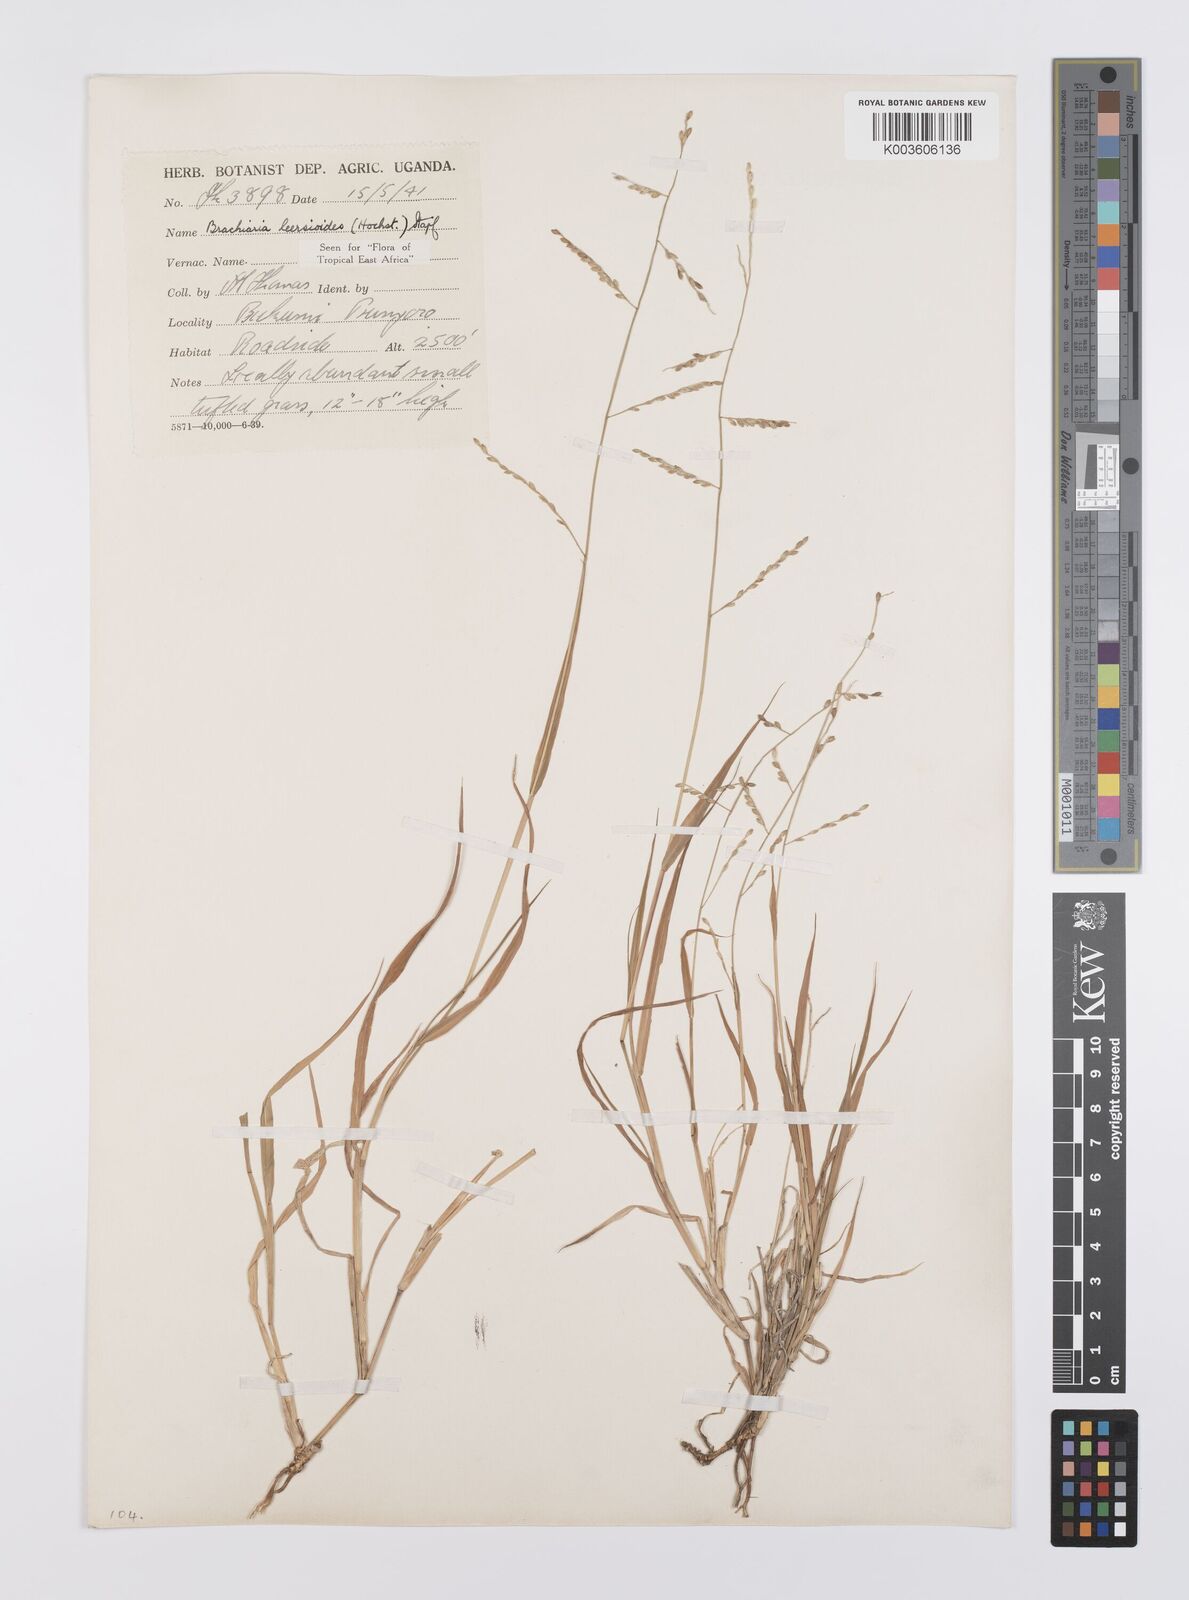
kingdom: Plantae
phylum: Tracheophyta
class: Liliopsida
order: Poales
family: Poaceae
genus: Urochloa
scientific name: Urochloa leersioides
